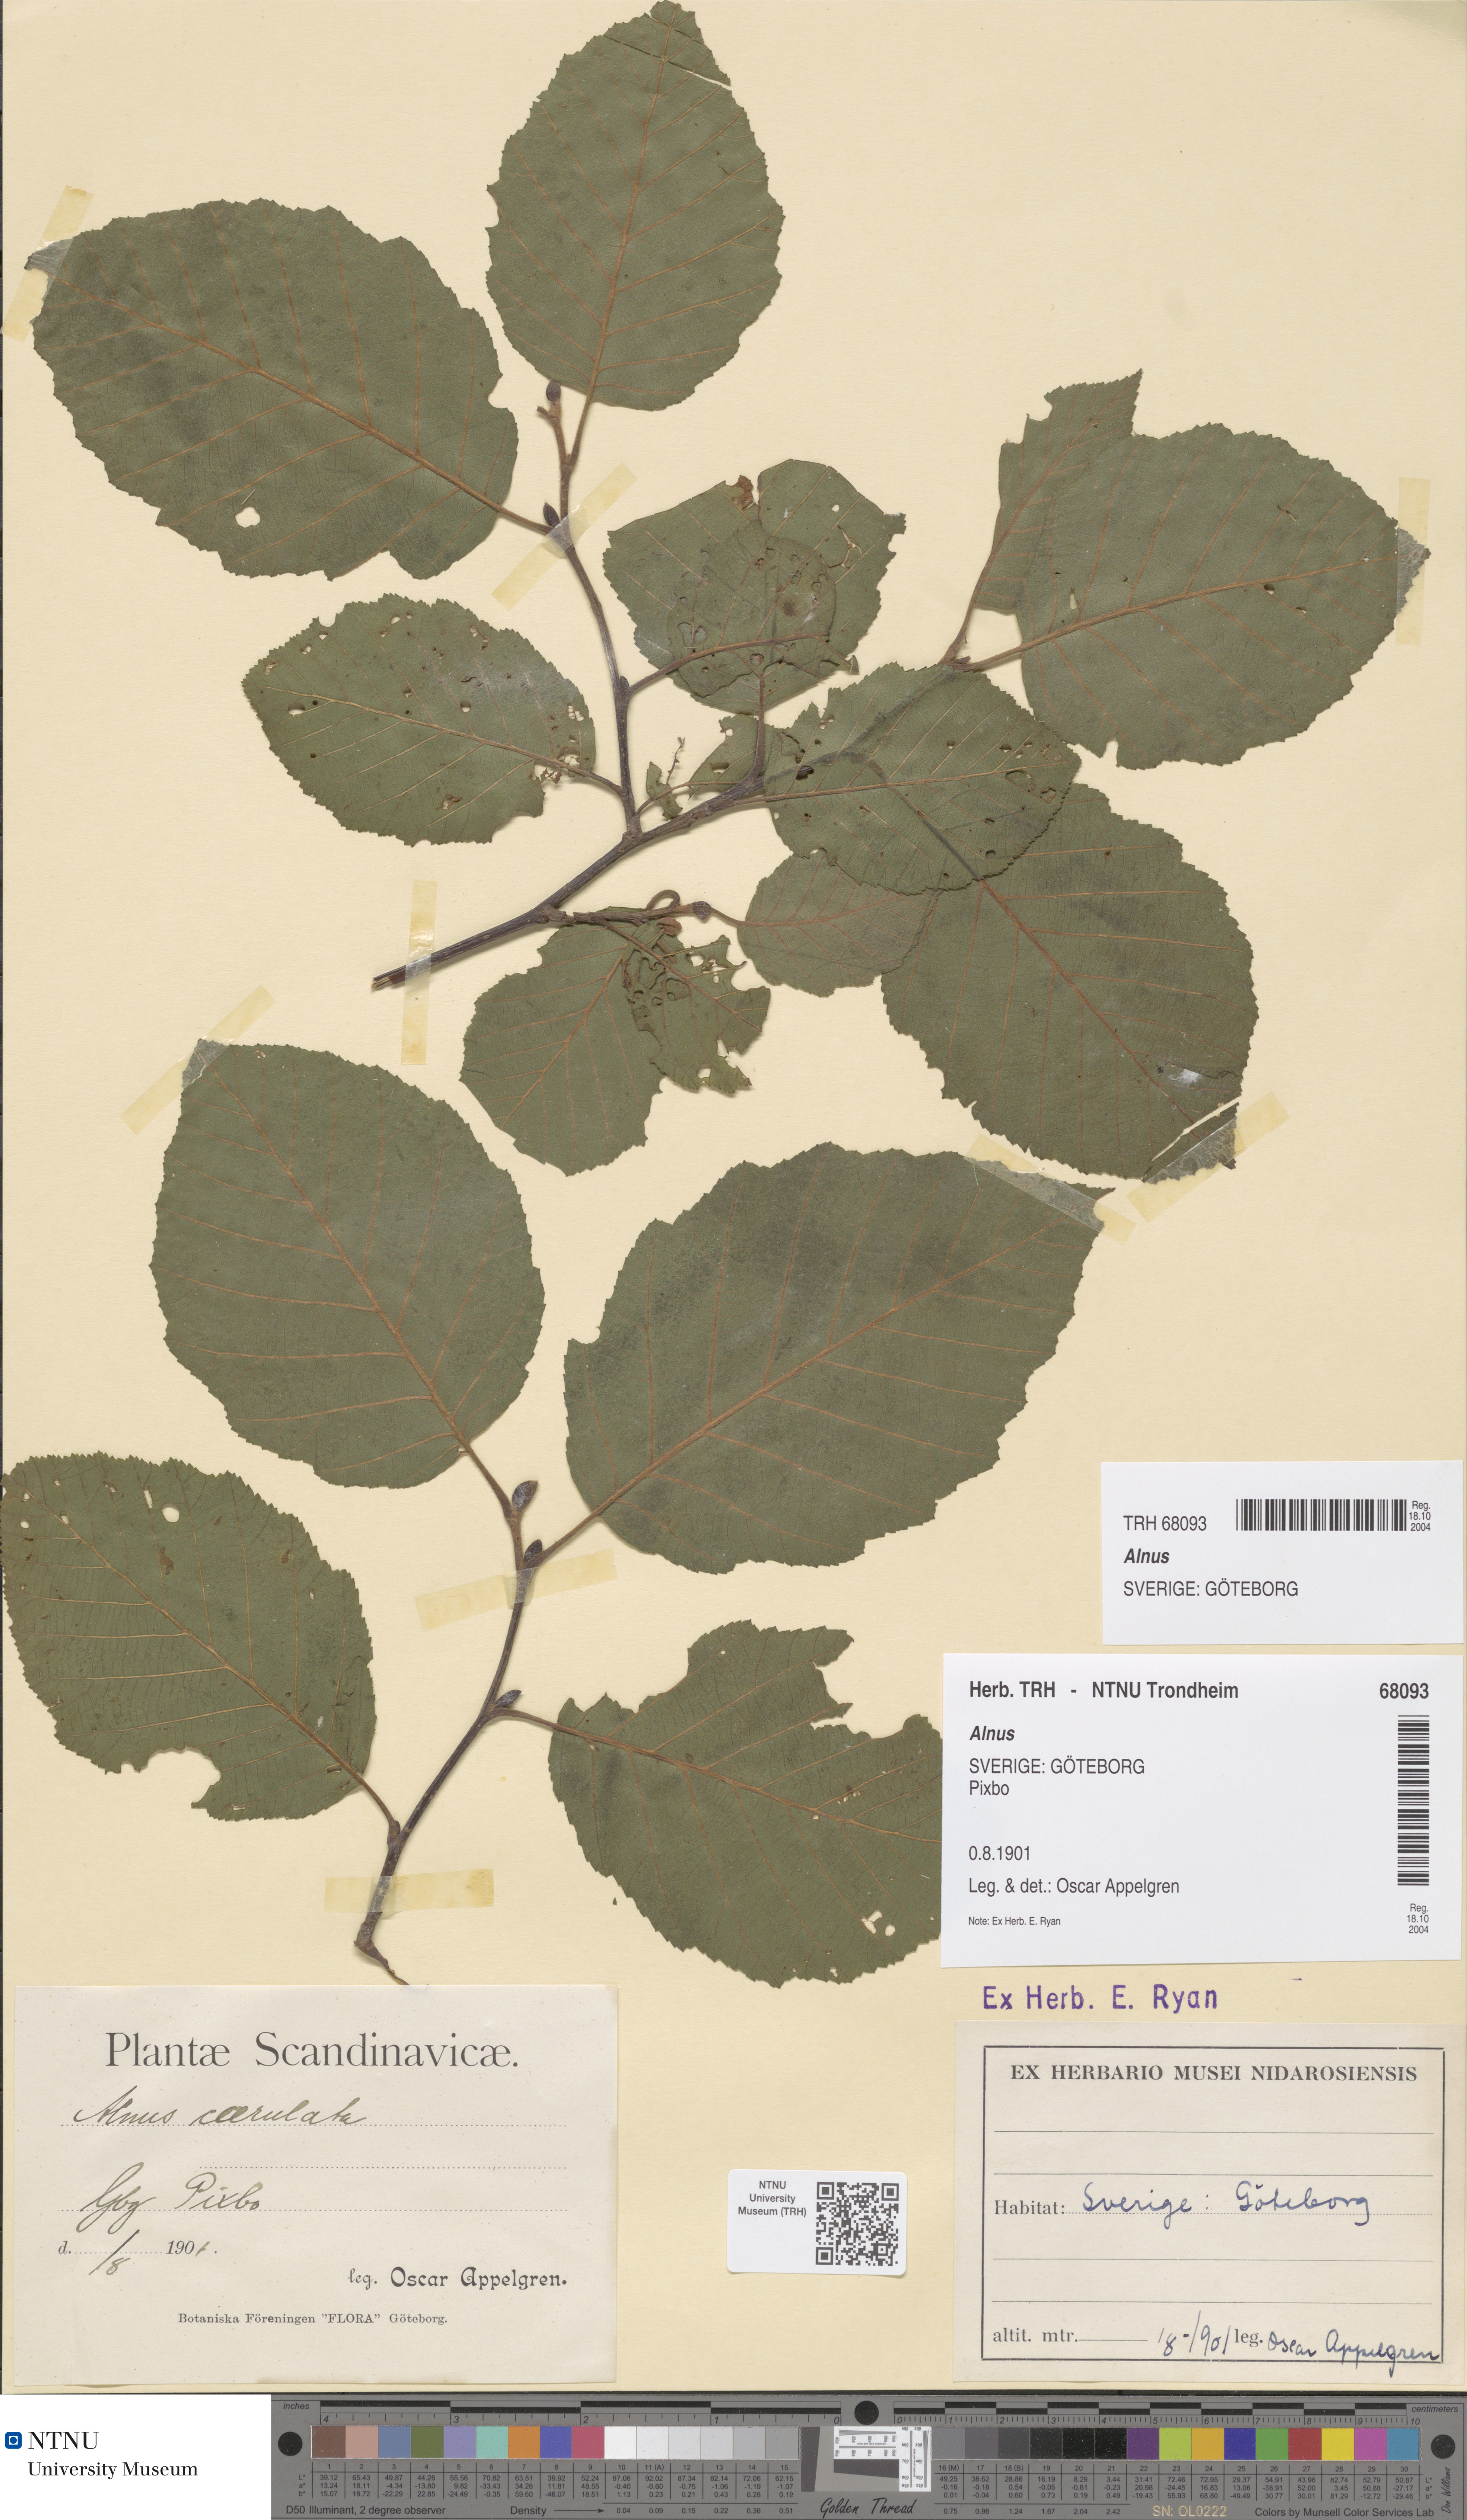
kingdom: Plantae
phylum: Tracheophyta
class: Magnoliopsida
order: Fagales
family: Betulaceae
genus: Alnus
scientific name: Alnus
